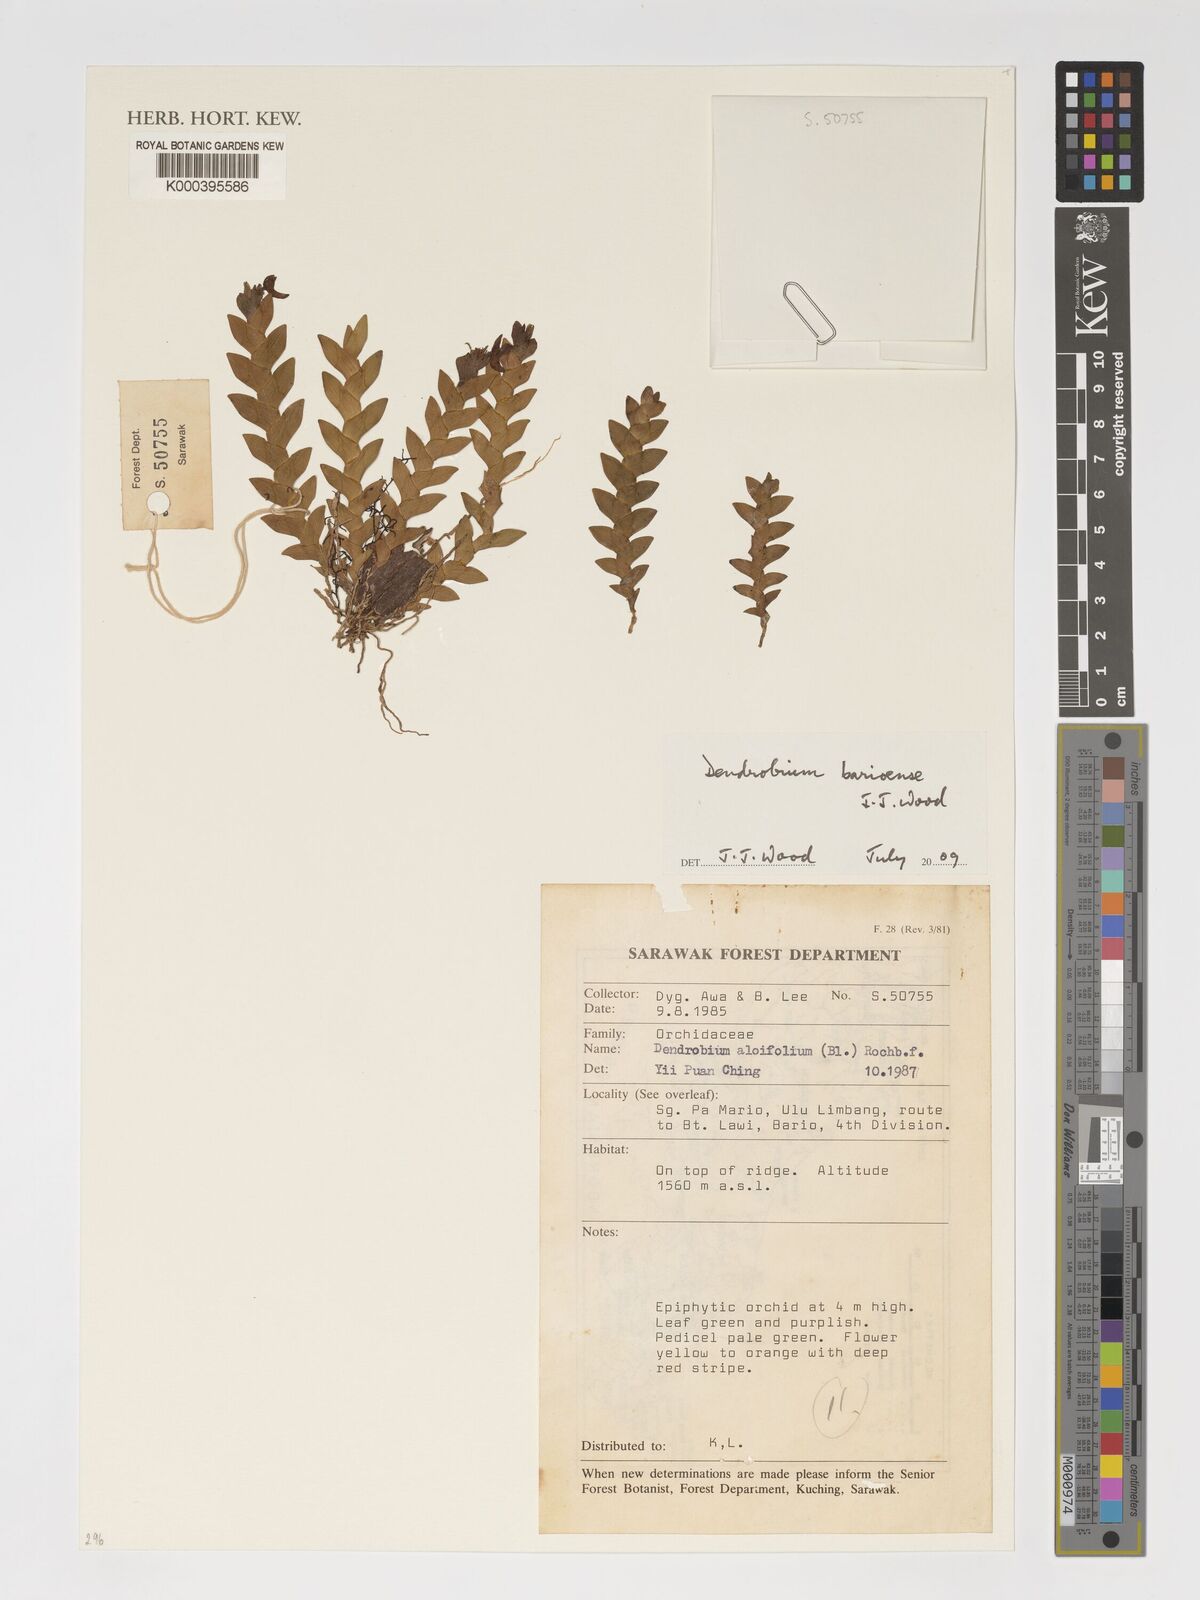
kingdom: Plantae
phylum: Tracheophyta
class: Liliopsida
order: Asparagales
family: Orchidaceae
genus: Dendrobium
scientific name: Dendrobium barioense
